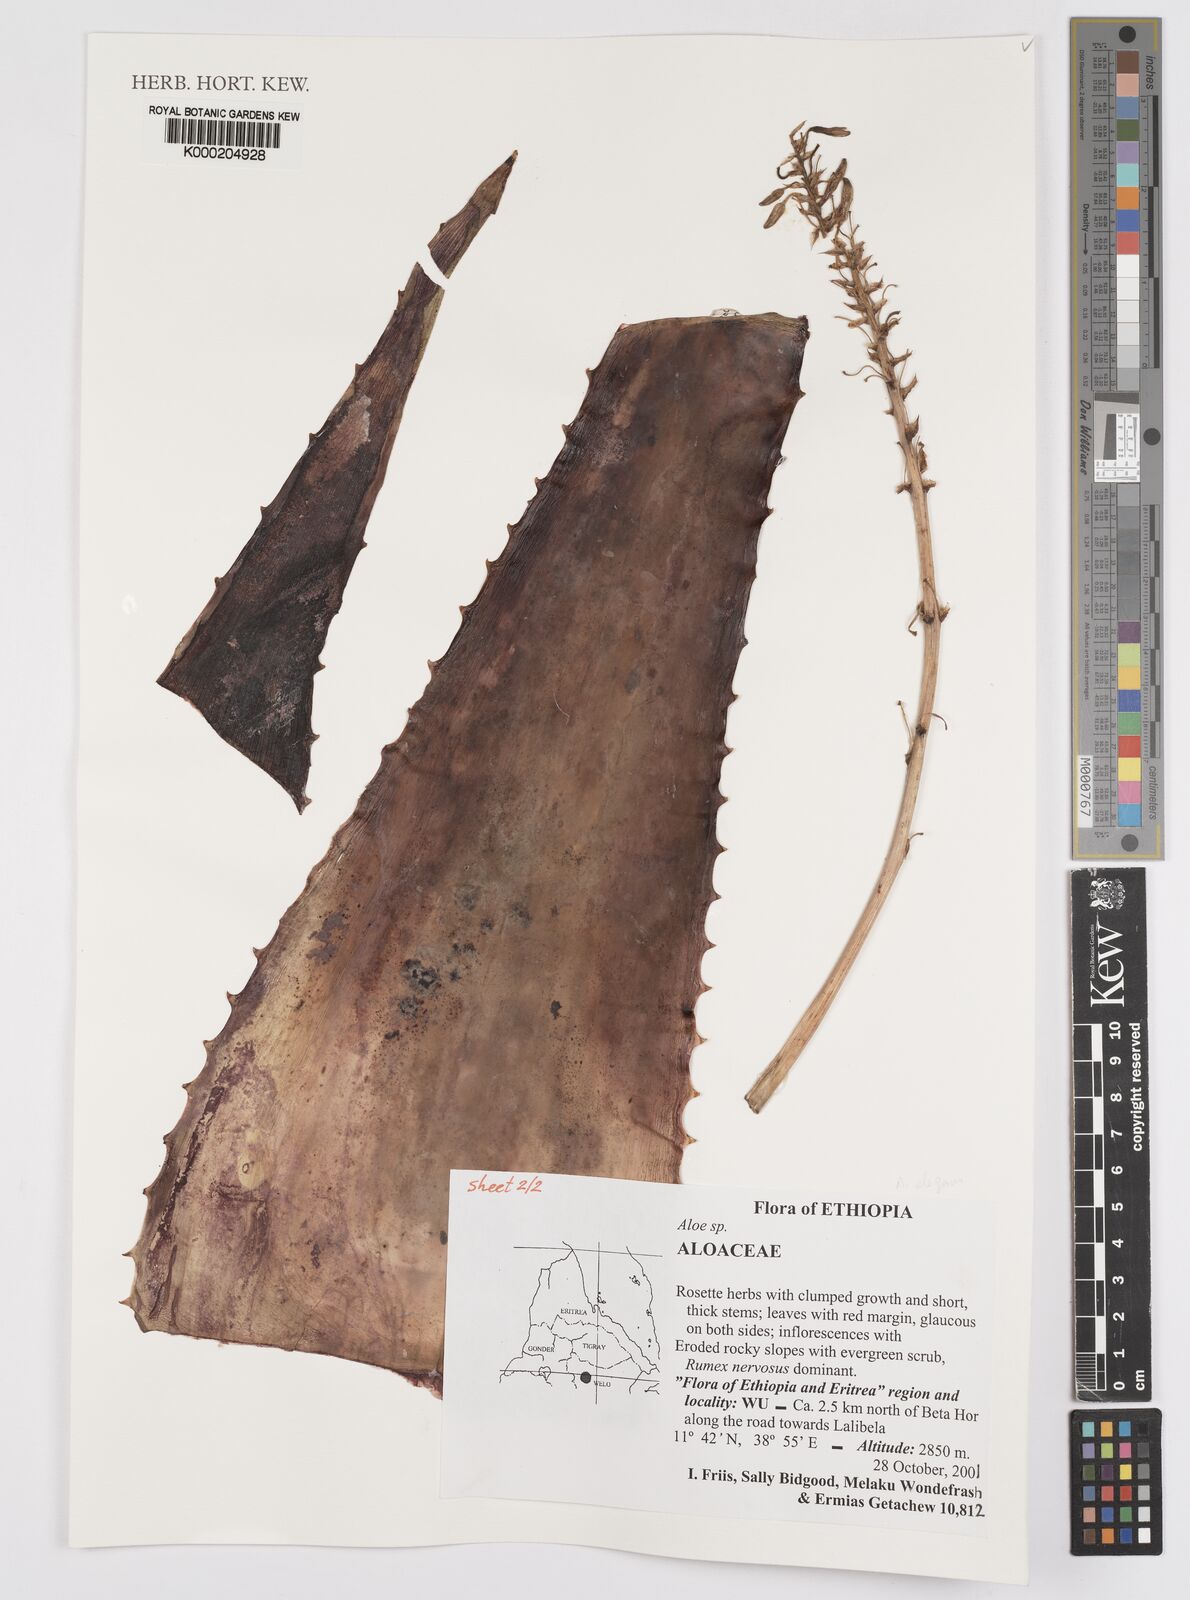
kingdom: Plantae
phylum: Tracheophyta
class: Liliopsida
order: Asparagales
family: Asphodelaceae
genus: Aloe
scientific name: Aloe
